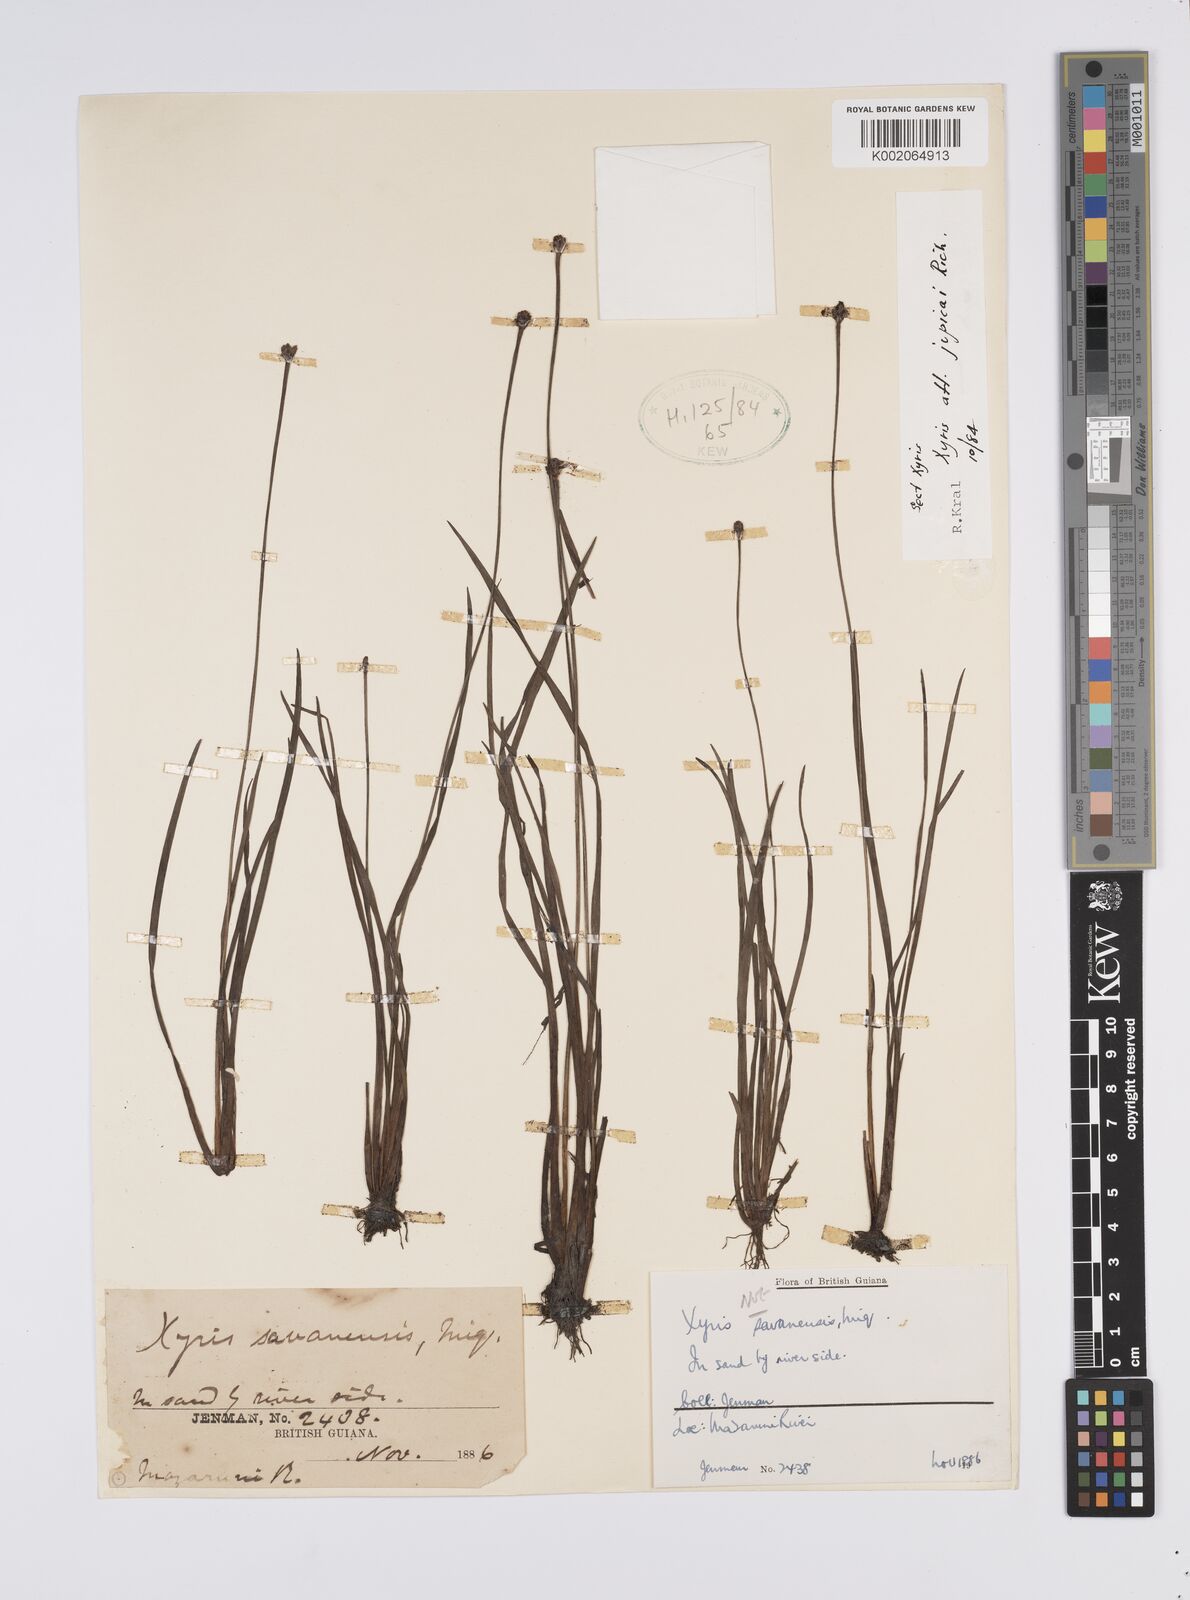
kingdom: Plantae
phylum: Tracheophyta
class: Liliopsida
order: Poales
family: Xyridaceae
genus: Xyris
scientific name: Xyris jupicai
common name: Richard's yelloweyed grass
